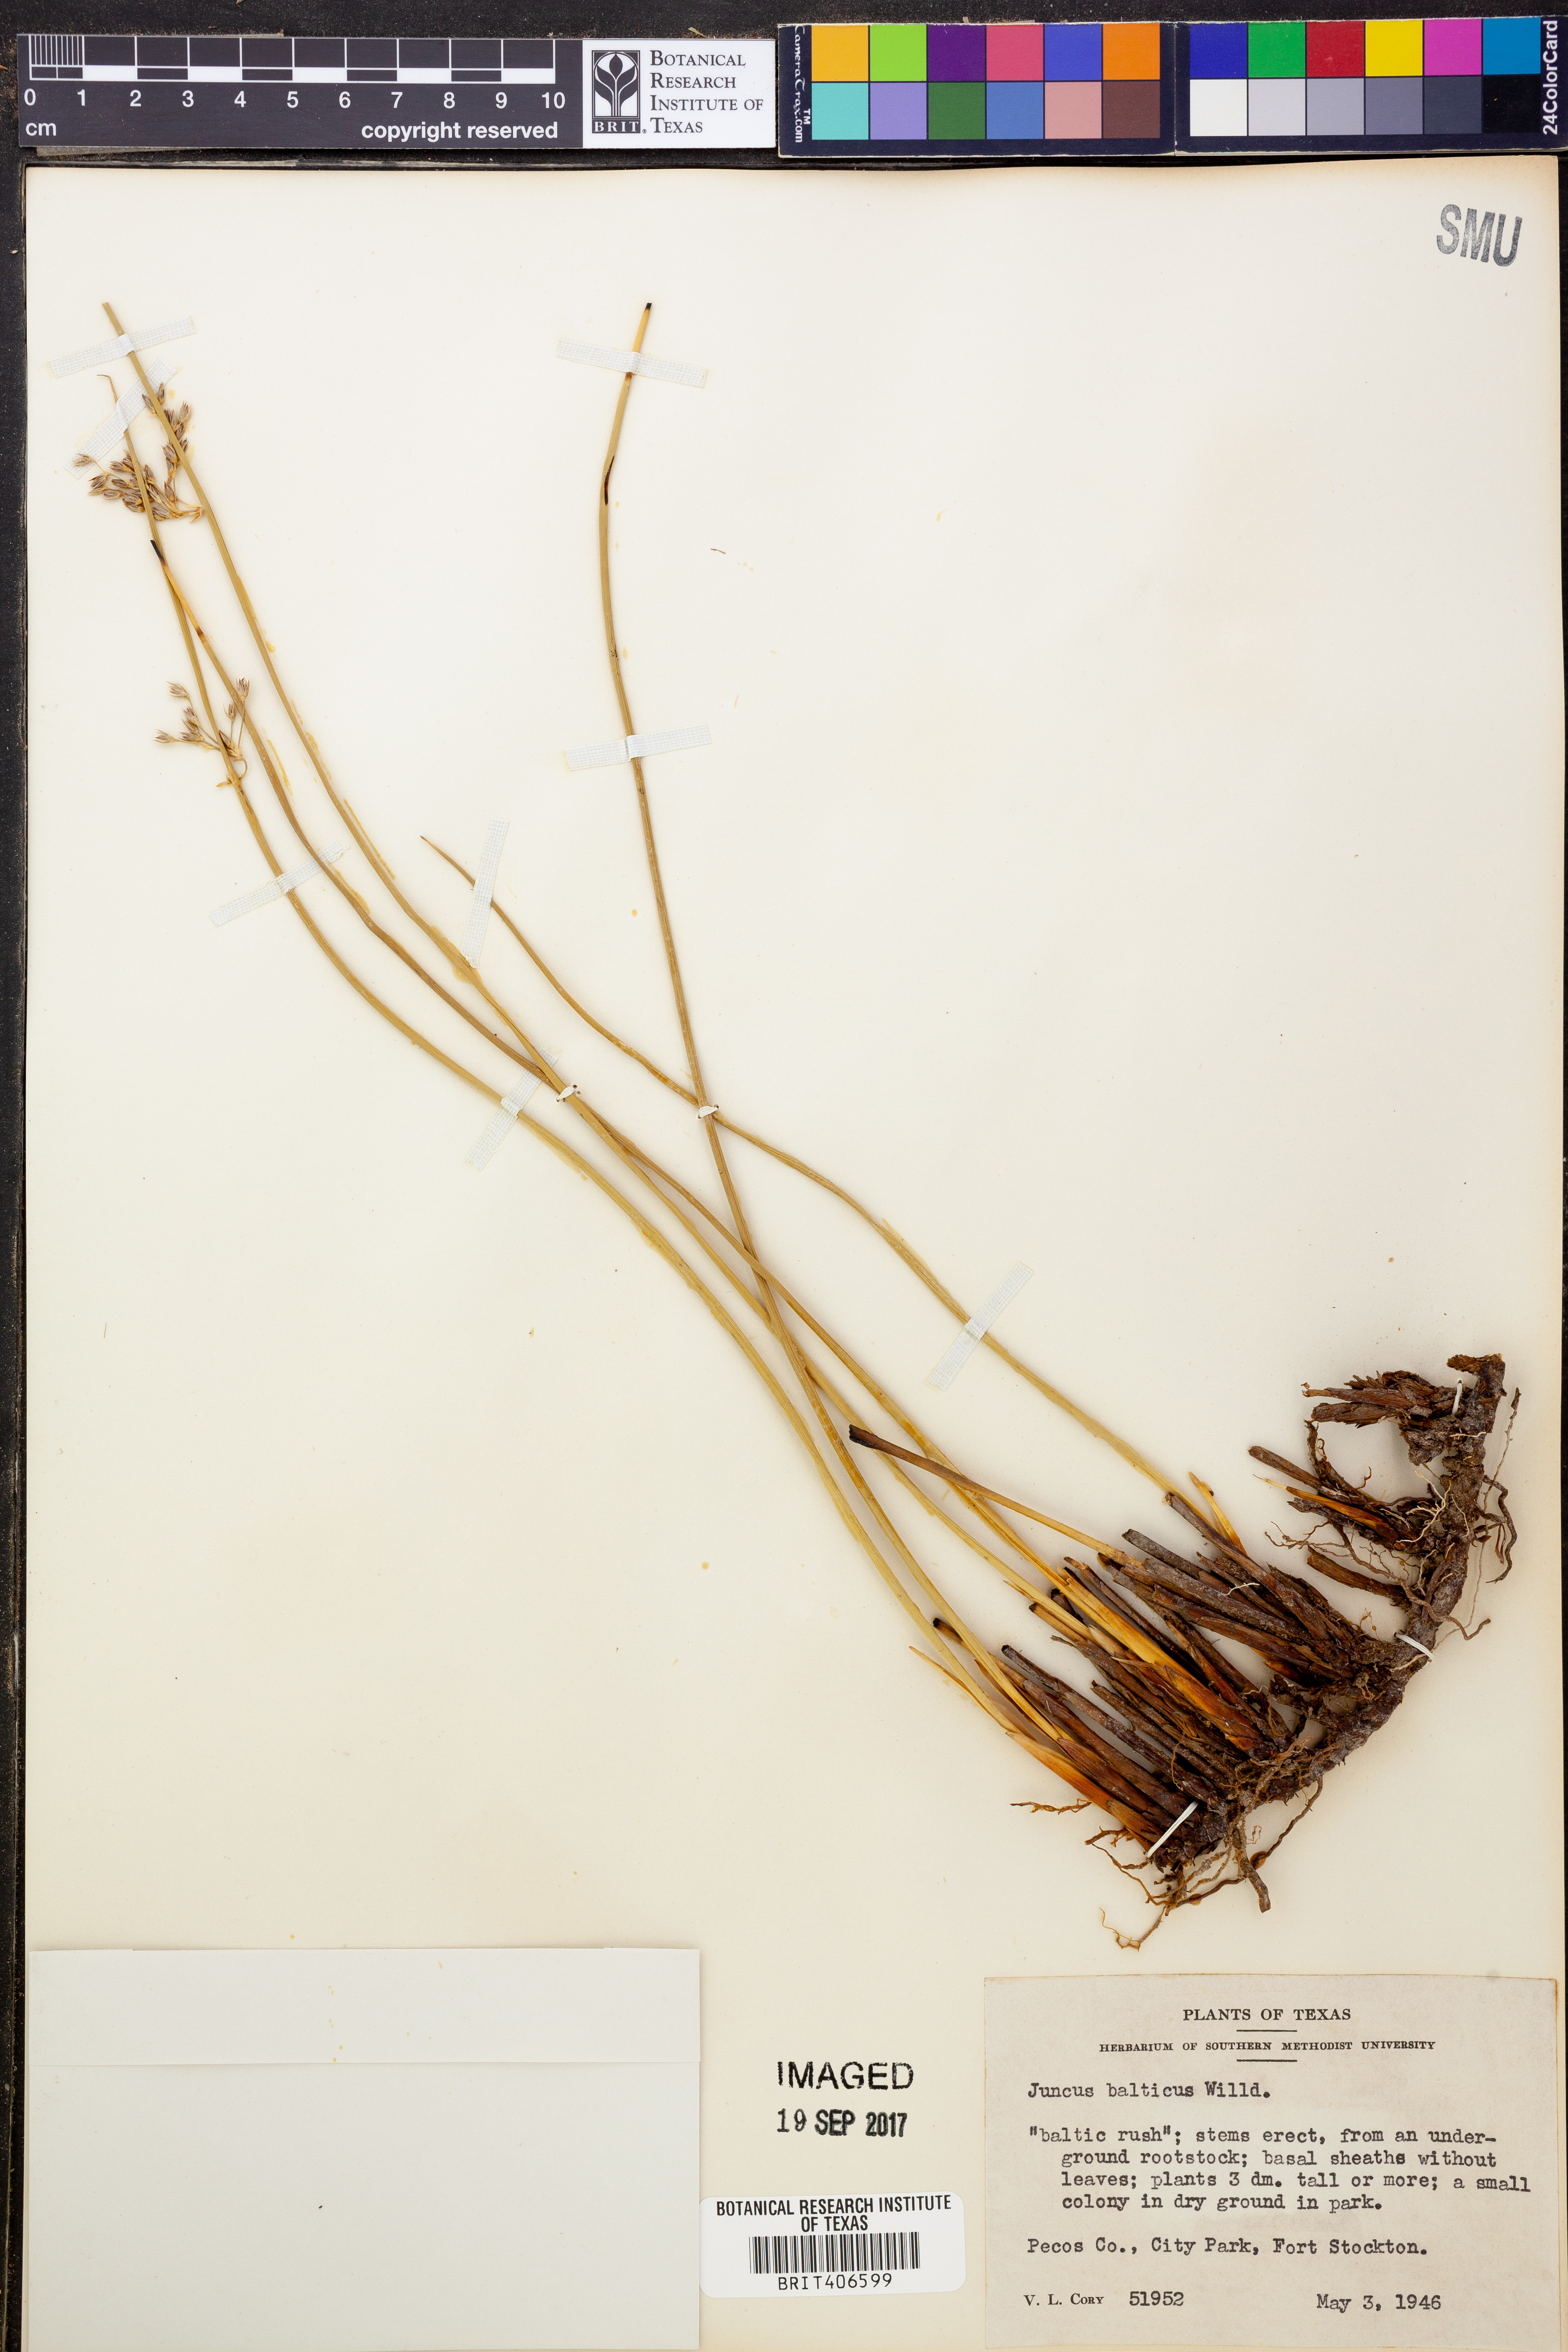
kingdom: Plantae
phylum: Tracheophyta
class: Liliopsida
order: Poales
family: Juncaceae
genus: Juncus
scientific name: Juncus balticus
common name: Baltic rush
